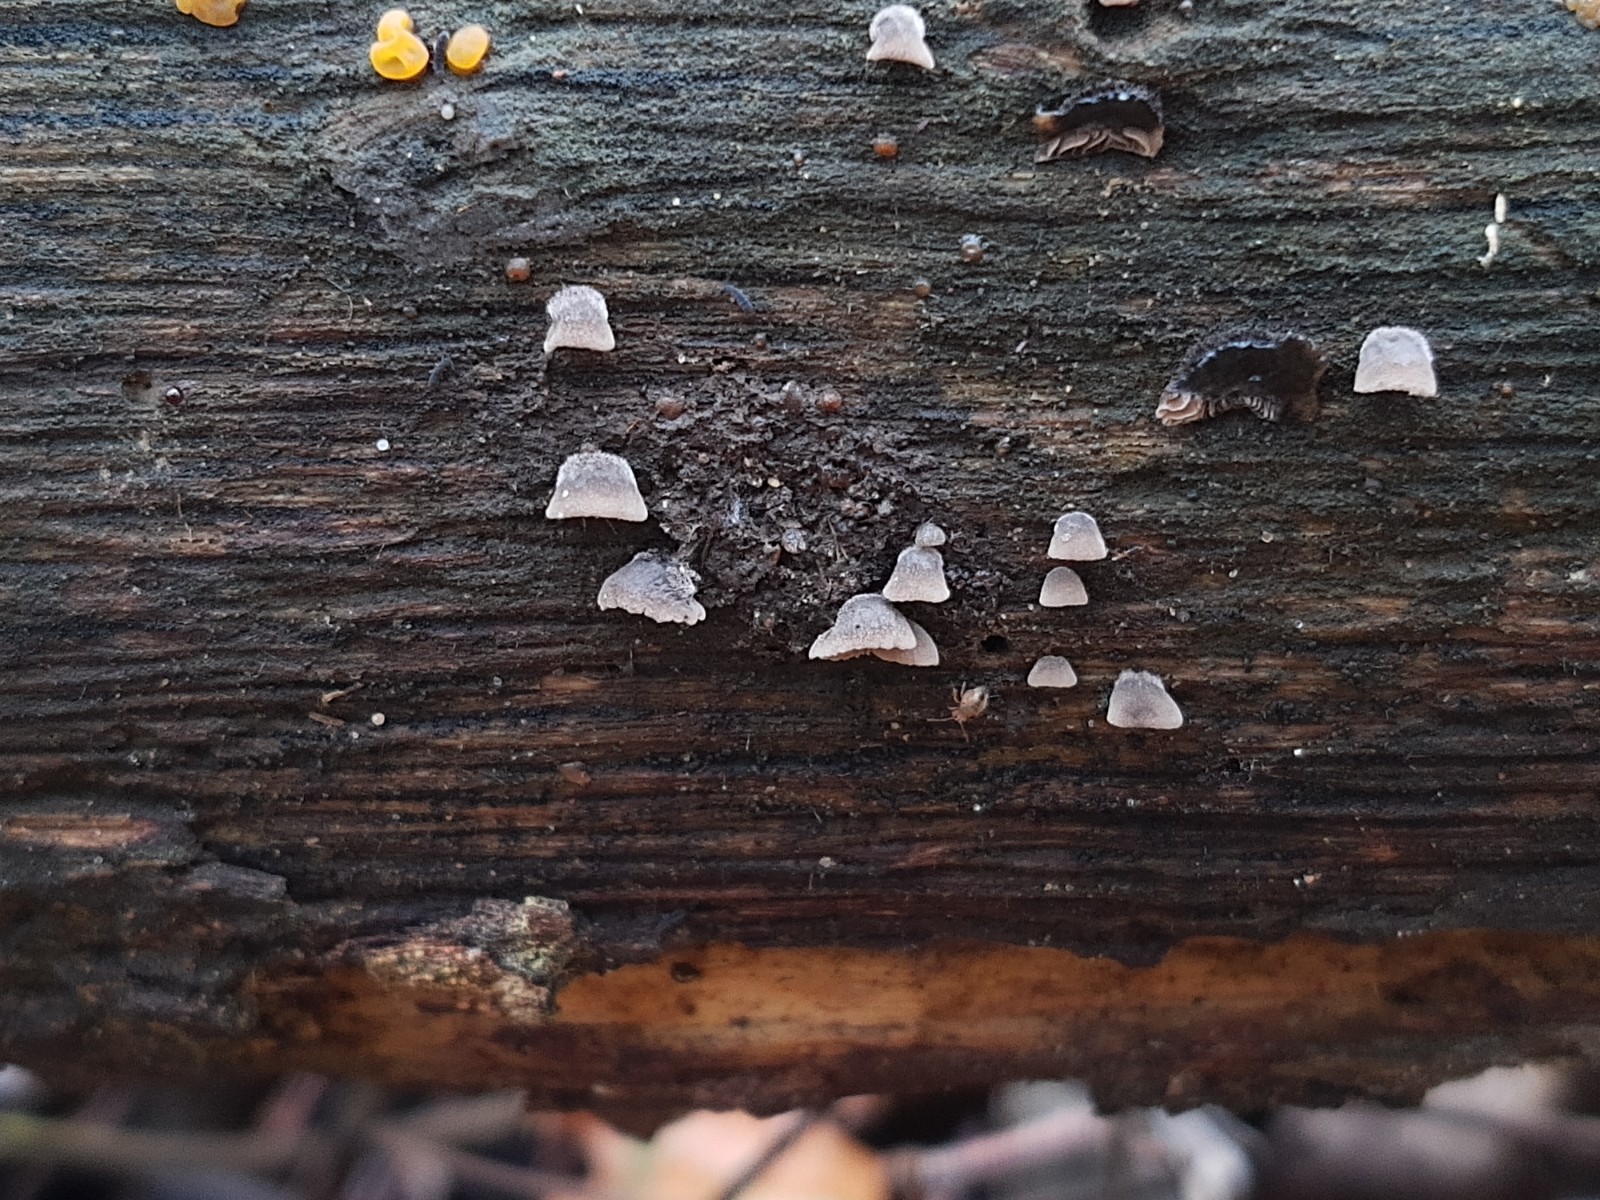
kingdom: Fungi
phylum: Basidiomycota
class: Agaricomycetes
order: Agaricales
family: Pleurotaceae
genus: Resupinatus
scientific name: Resupinatus trichotis
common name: mørkfiltet barkhat
